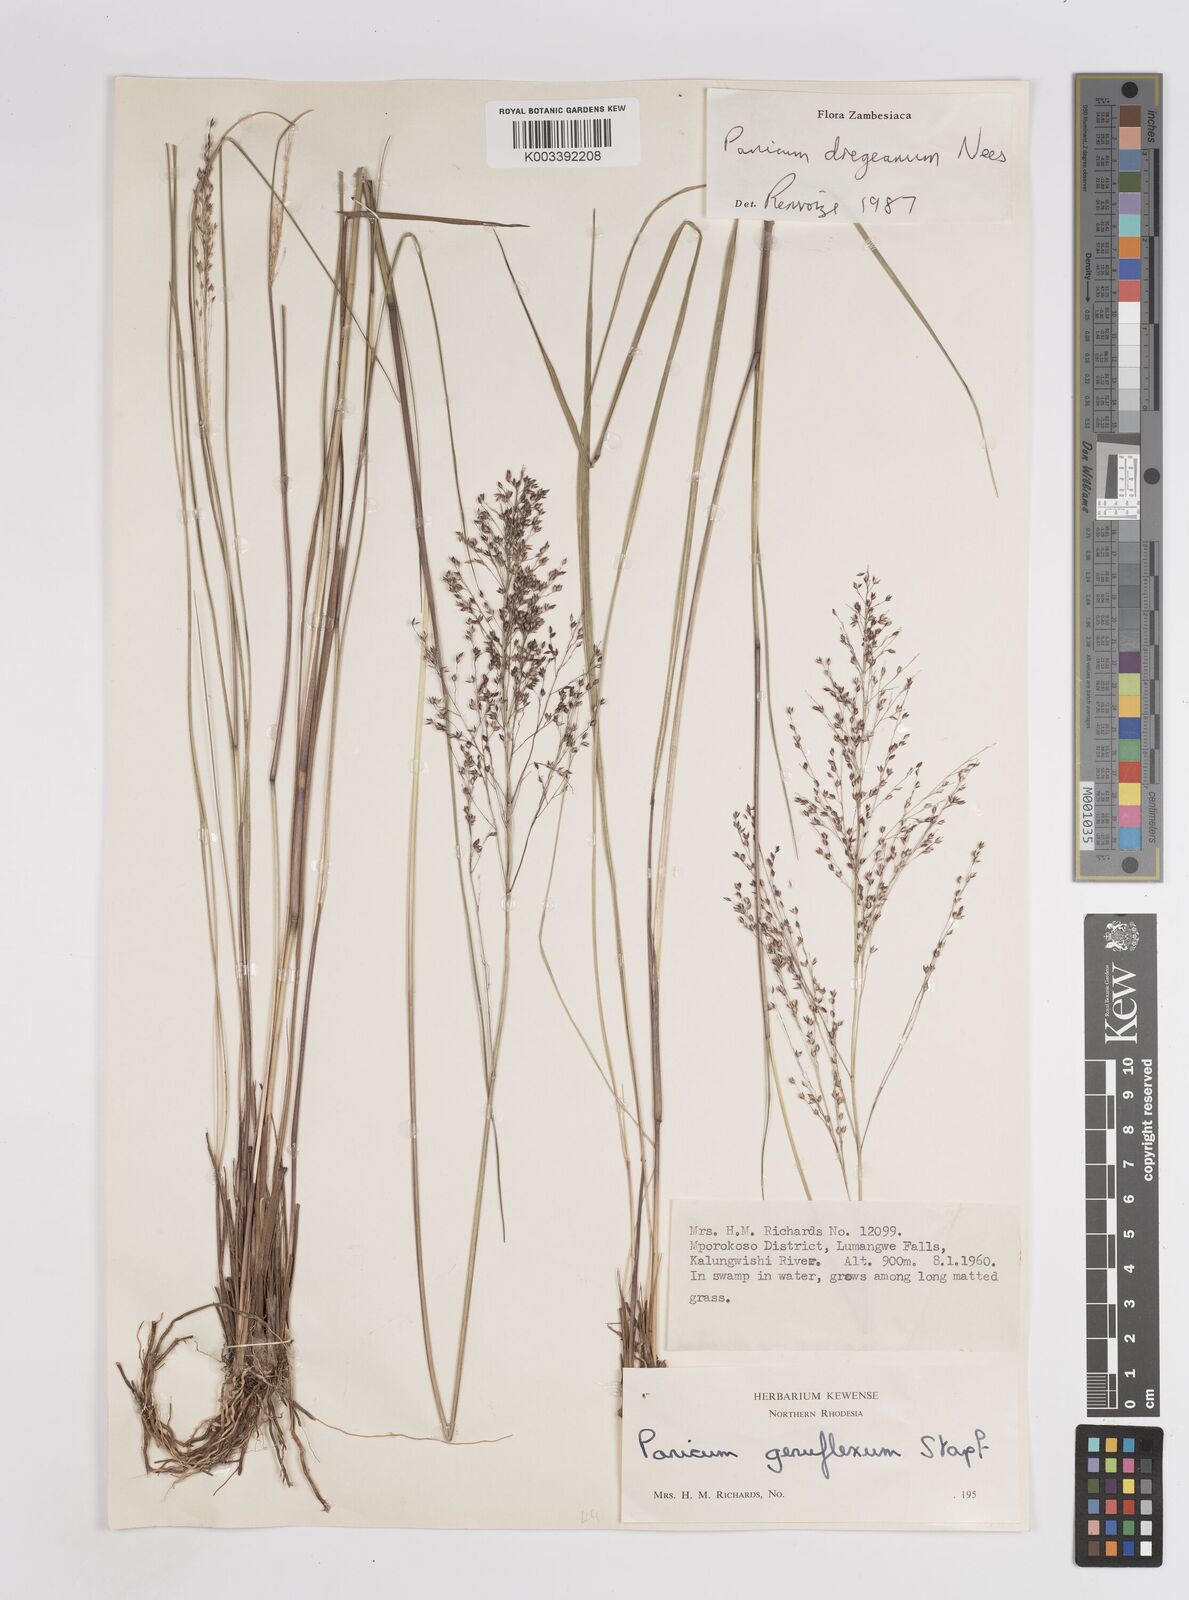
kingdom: Plantae
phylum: Tracheophyta
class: Liliopsida
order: Poales
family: Poaceae
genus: Panicum
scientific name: Panicum dregeanum
